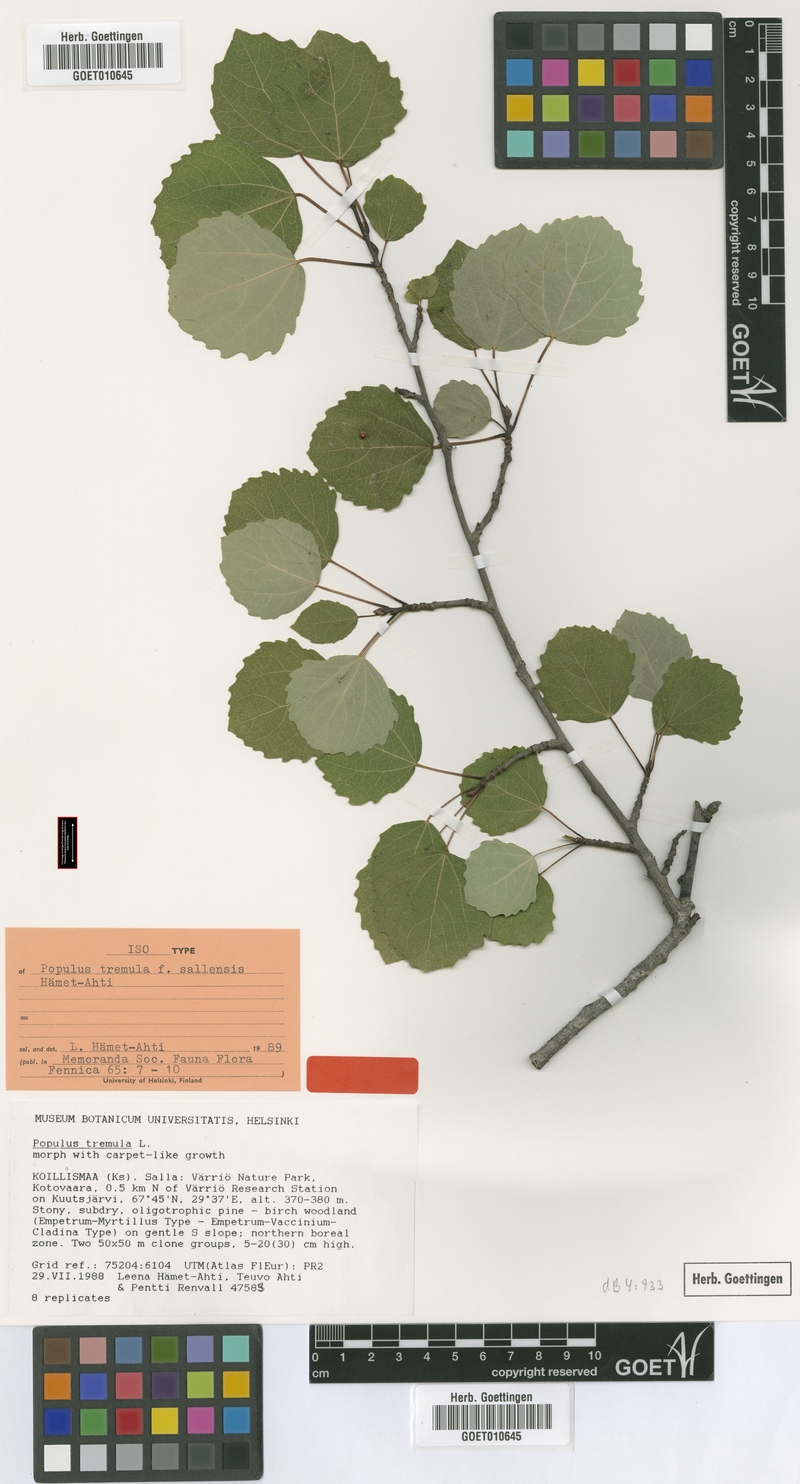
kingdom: Plantae
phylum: Tracheophyta
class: Magnoliopsida
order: Malpighiales
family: Salicaceae
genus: Populus
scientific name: Populus tremula
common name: European aspen
